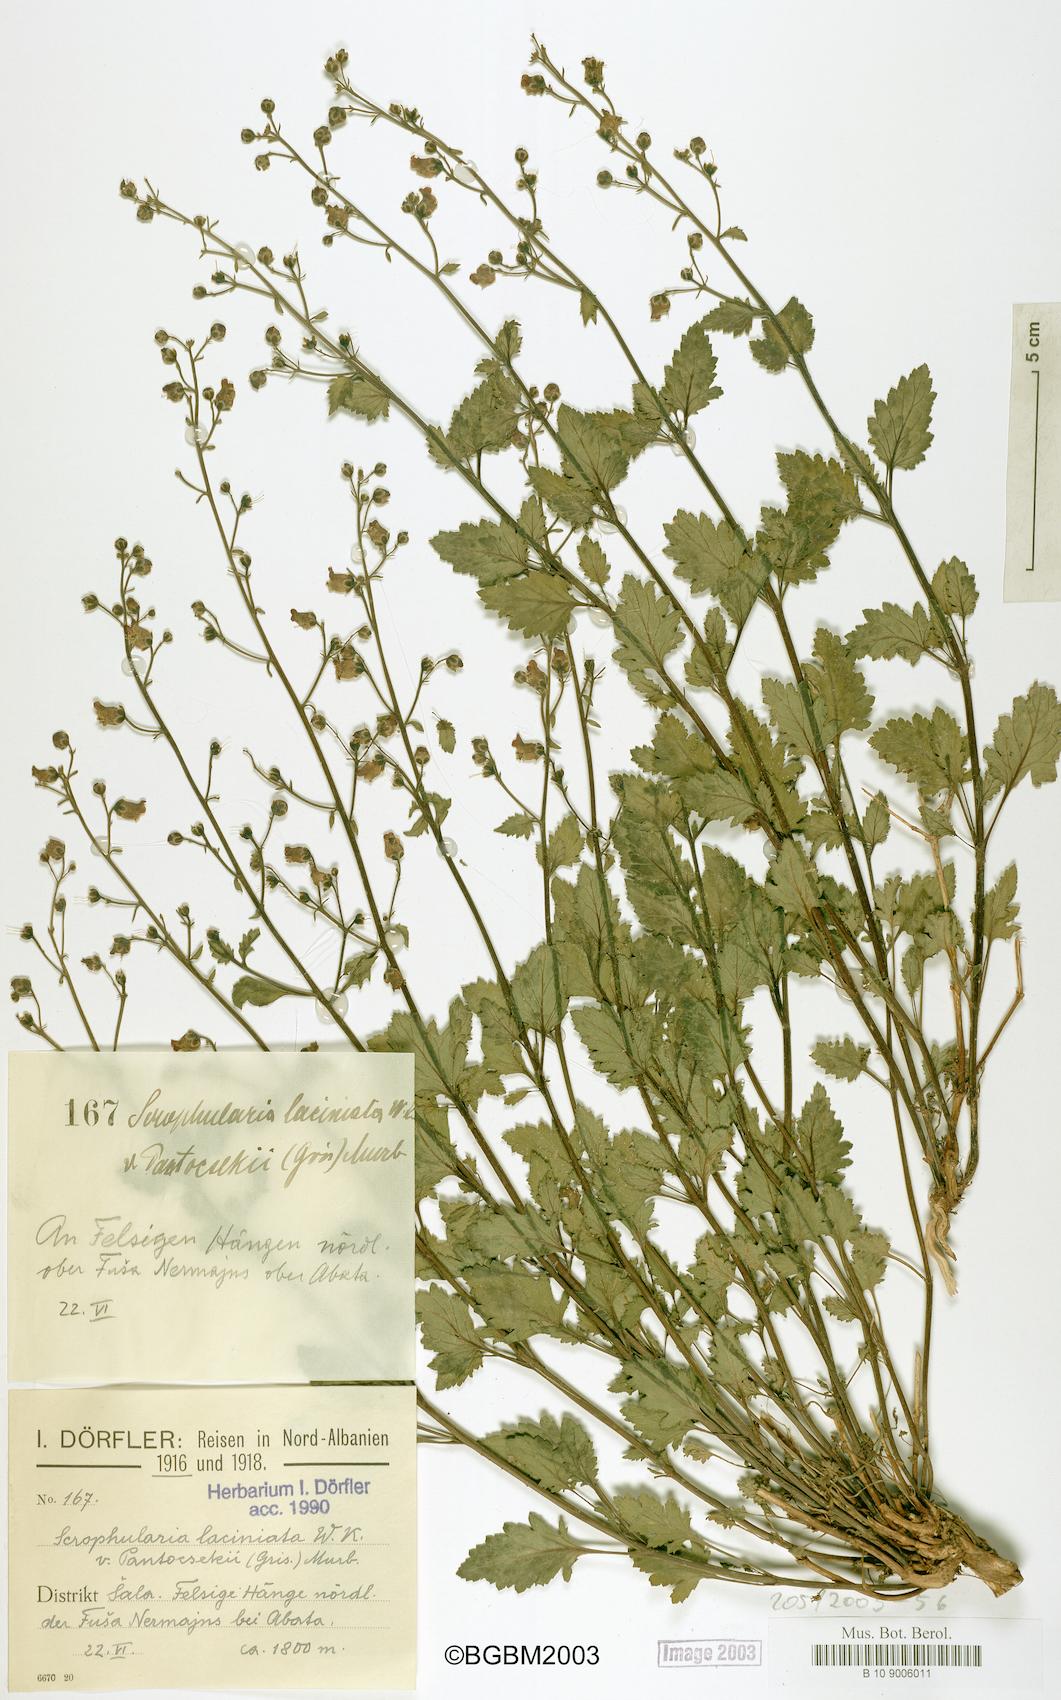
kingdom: Plantae
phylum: Tracheophyta
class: Magnoliopsida
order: Lamiales
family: Scrophulariaceae
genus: Scrophularia
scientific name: Scrophularia laciniata
